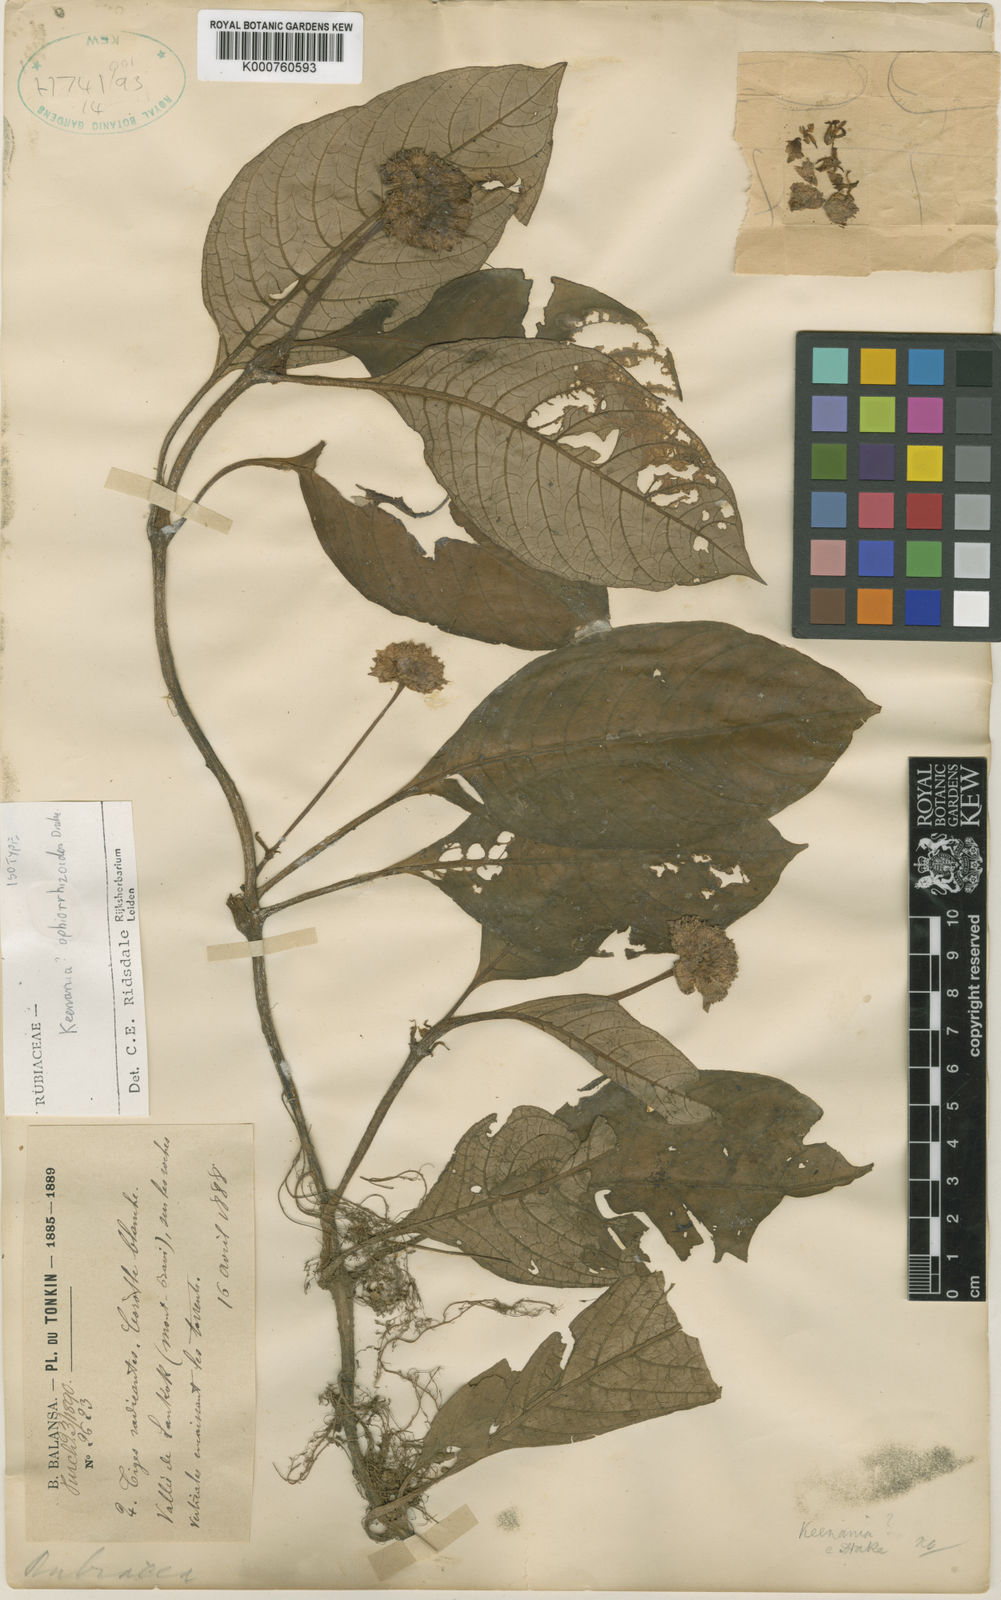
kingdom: Plantae
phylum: Tracheophyta
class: Magnoliopsida
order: Gentianales
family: Rubiaceae
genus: Ophiorrhiza
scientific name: Ophiorrhiza ophiorrhizoides
